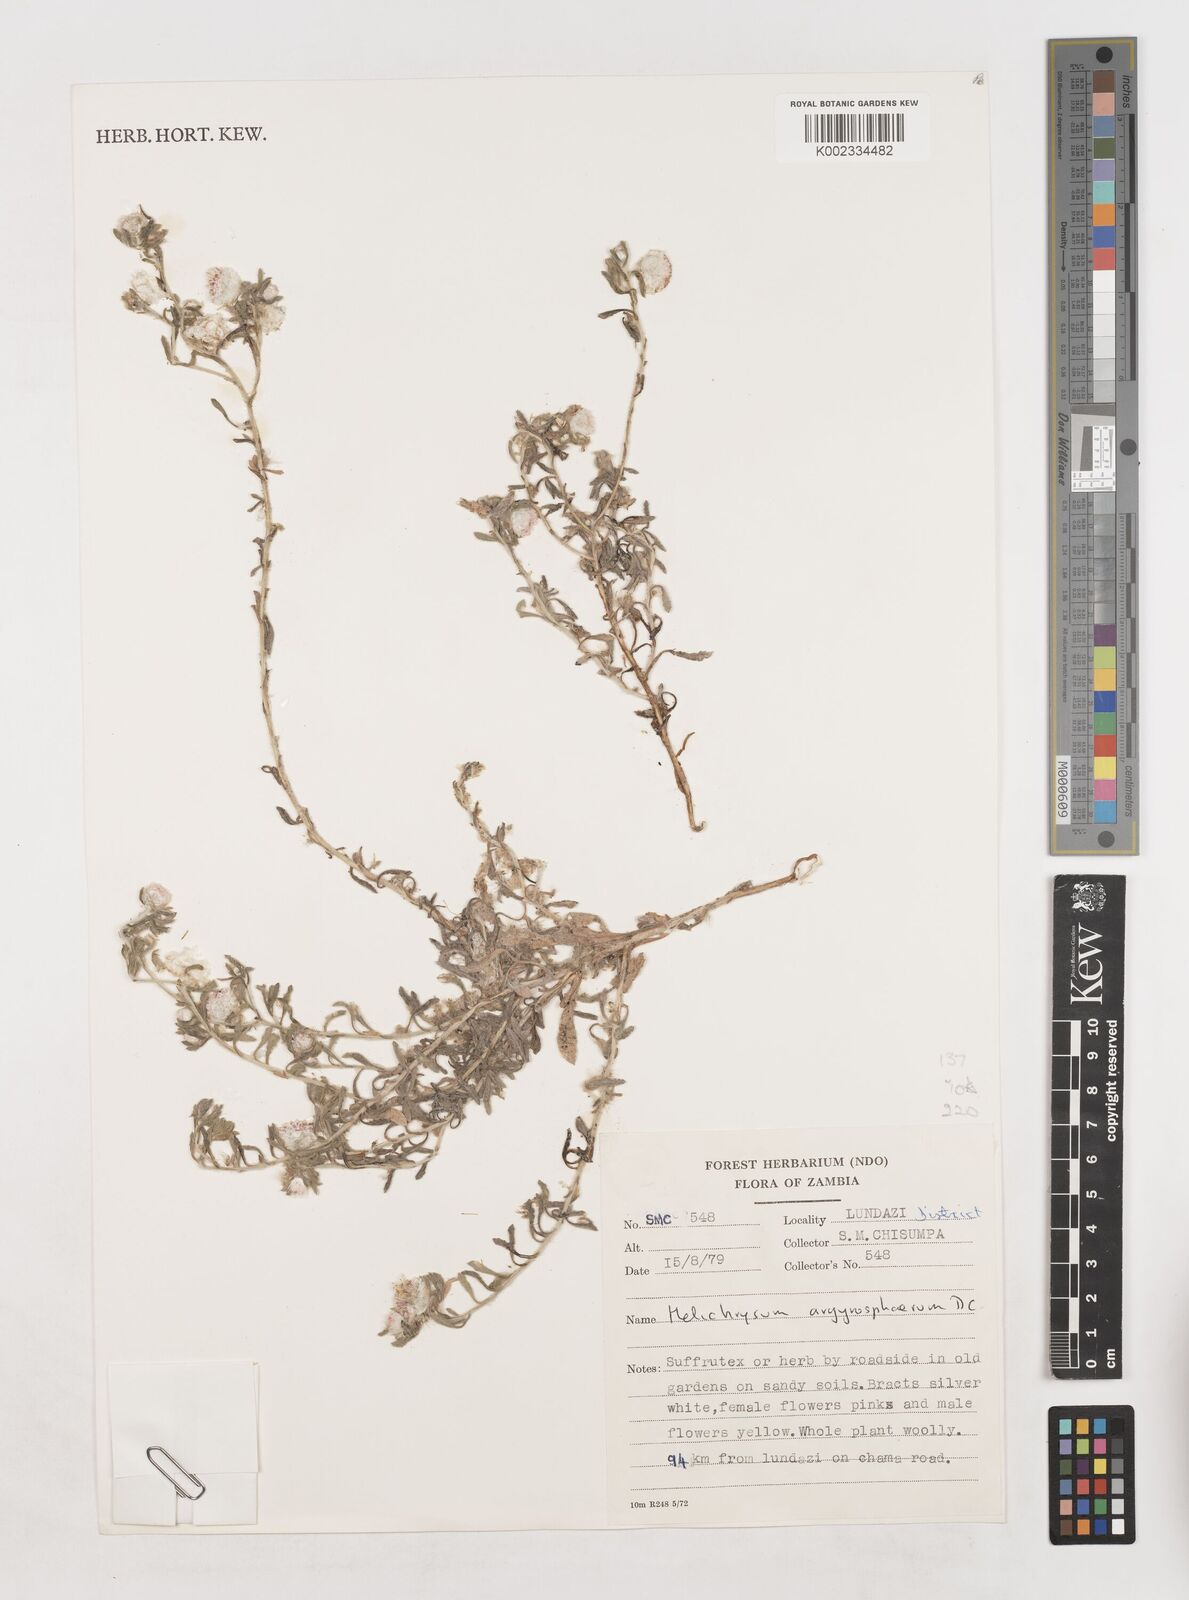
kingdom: Plantae
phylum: Tracheophyta
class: Magnoliopsida
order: Asterales
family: Asteraceae
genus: Helichrysum
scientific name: Helichrysum argyrosphaerum
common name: Wild everlasting
